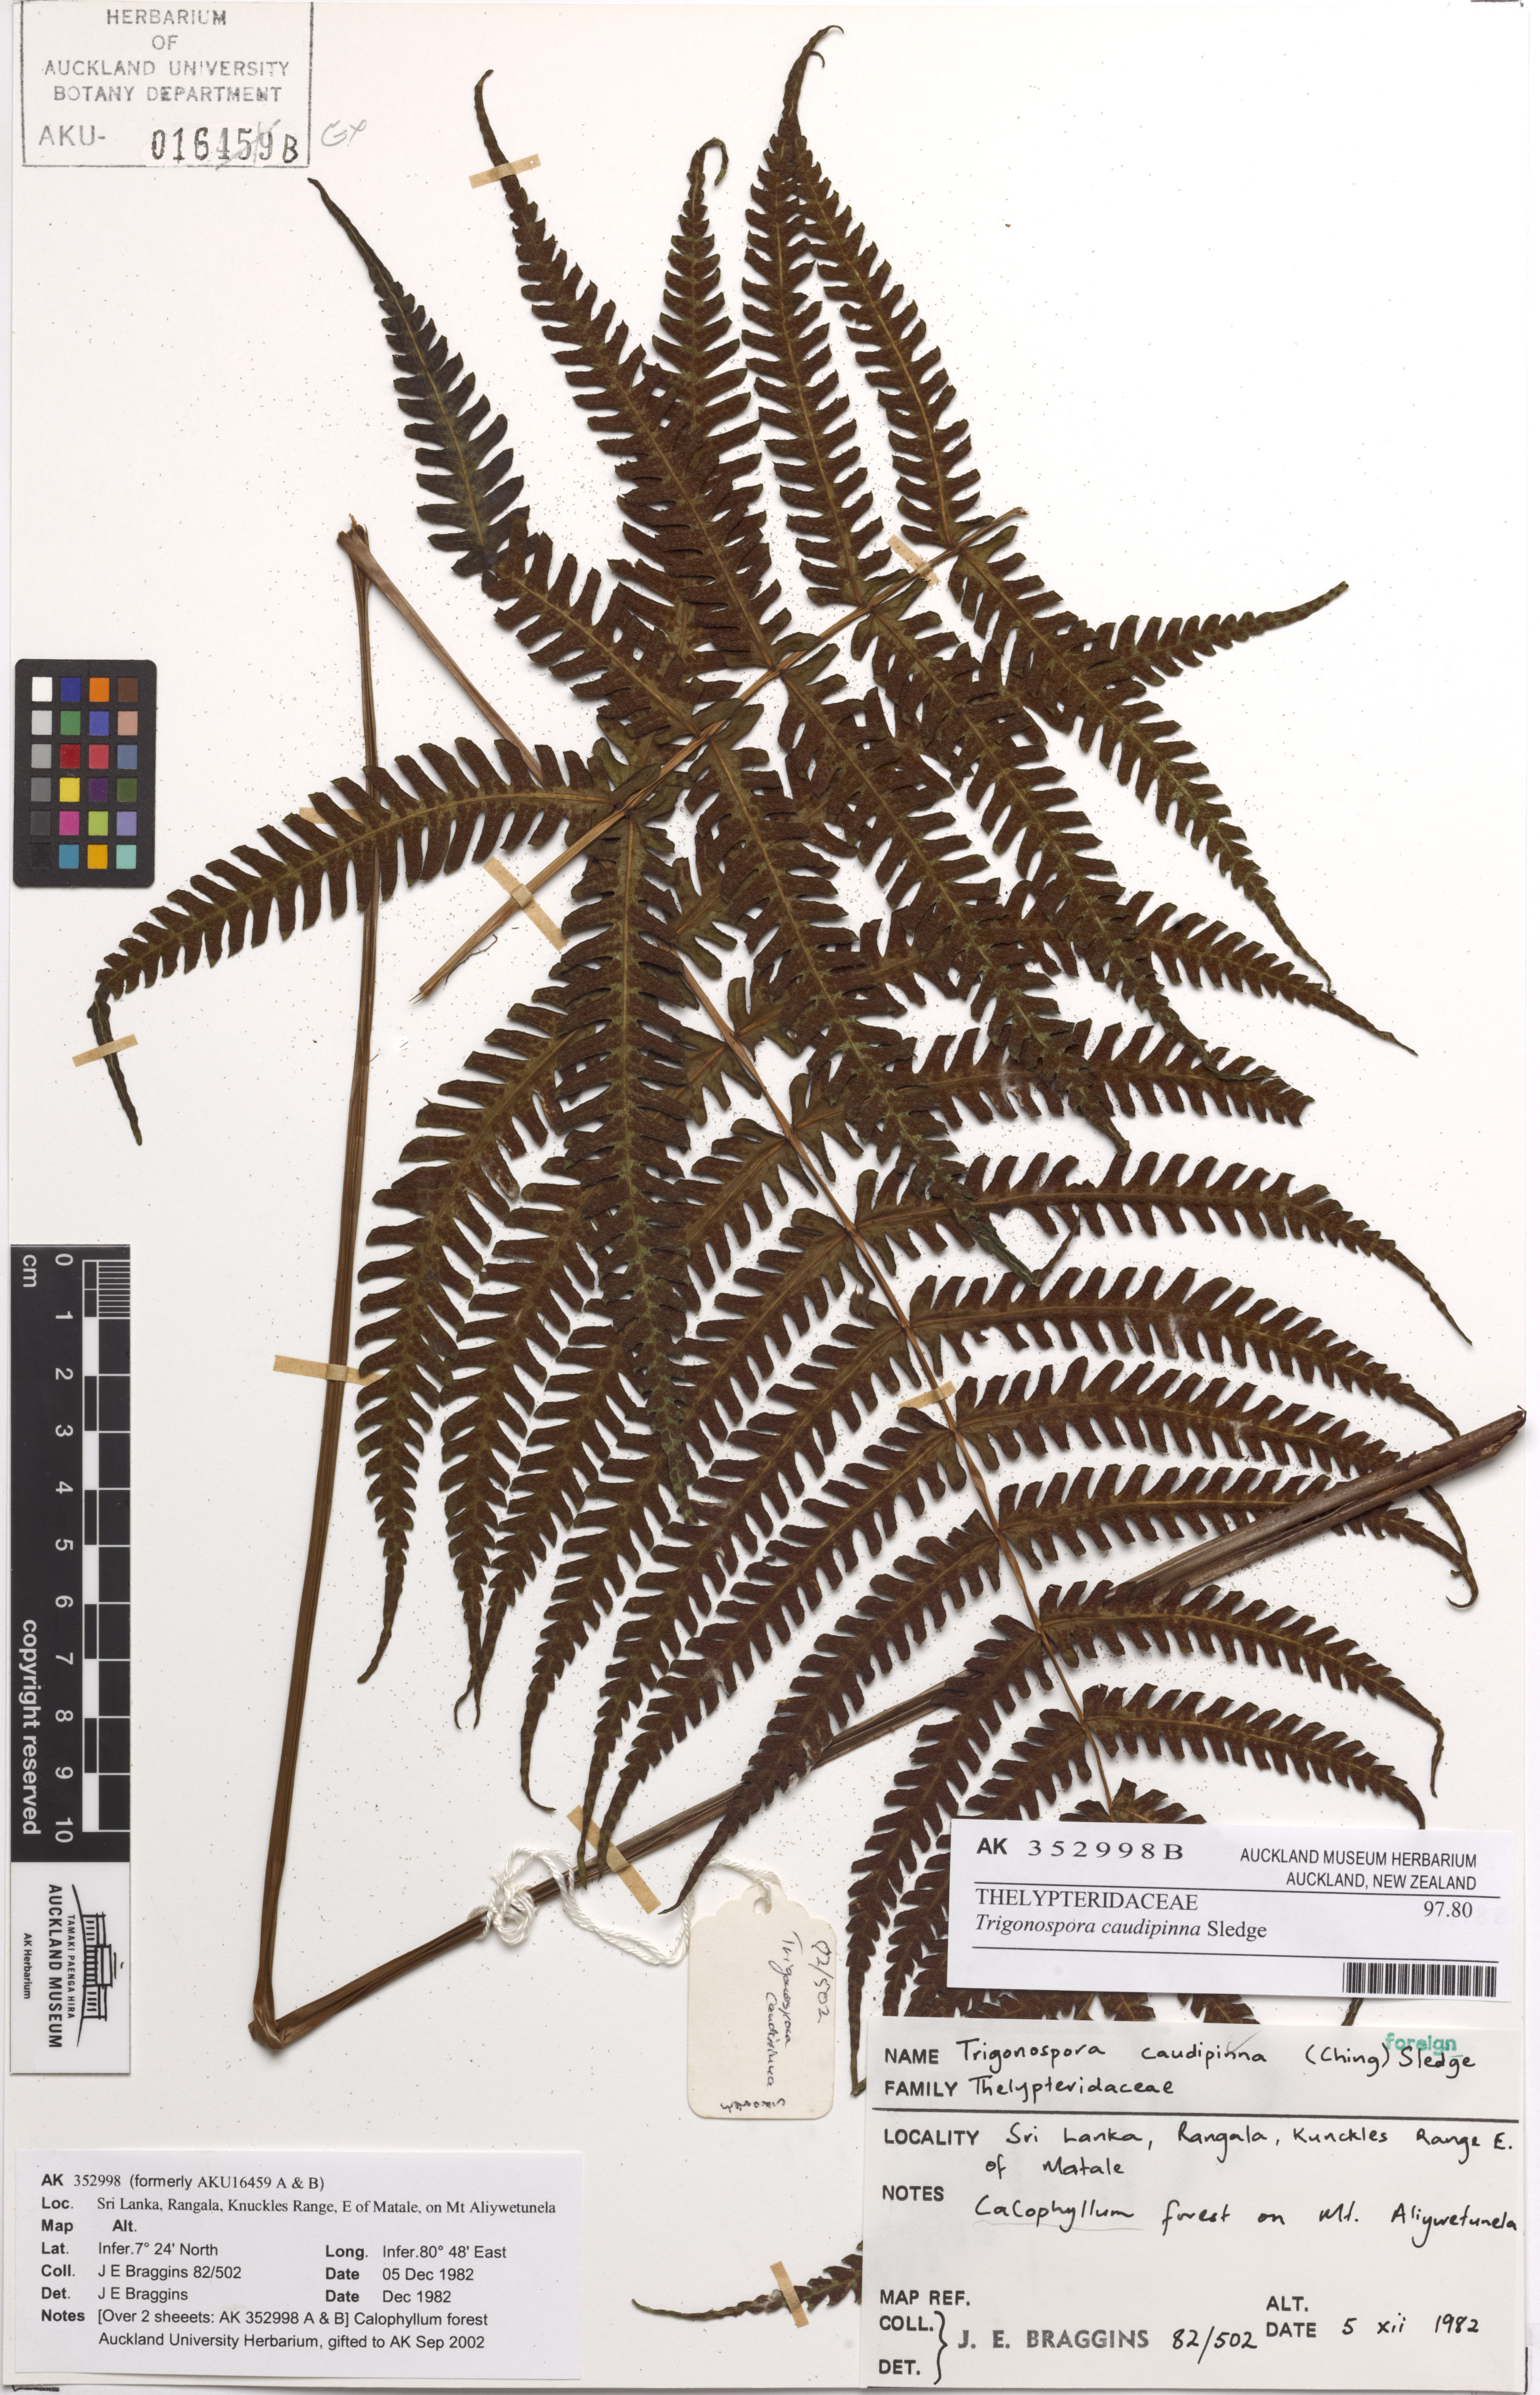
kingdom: Plantae
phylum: Tracheophyta
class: Polypodiopsida
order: Polypodiales
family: Thelypteridaceae
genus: Trigonospora
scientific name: Trigonospora caudipinna
